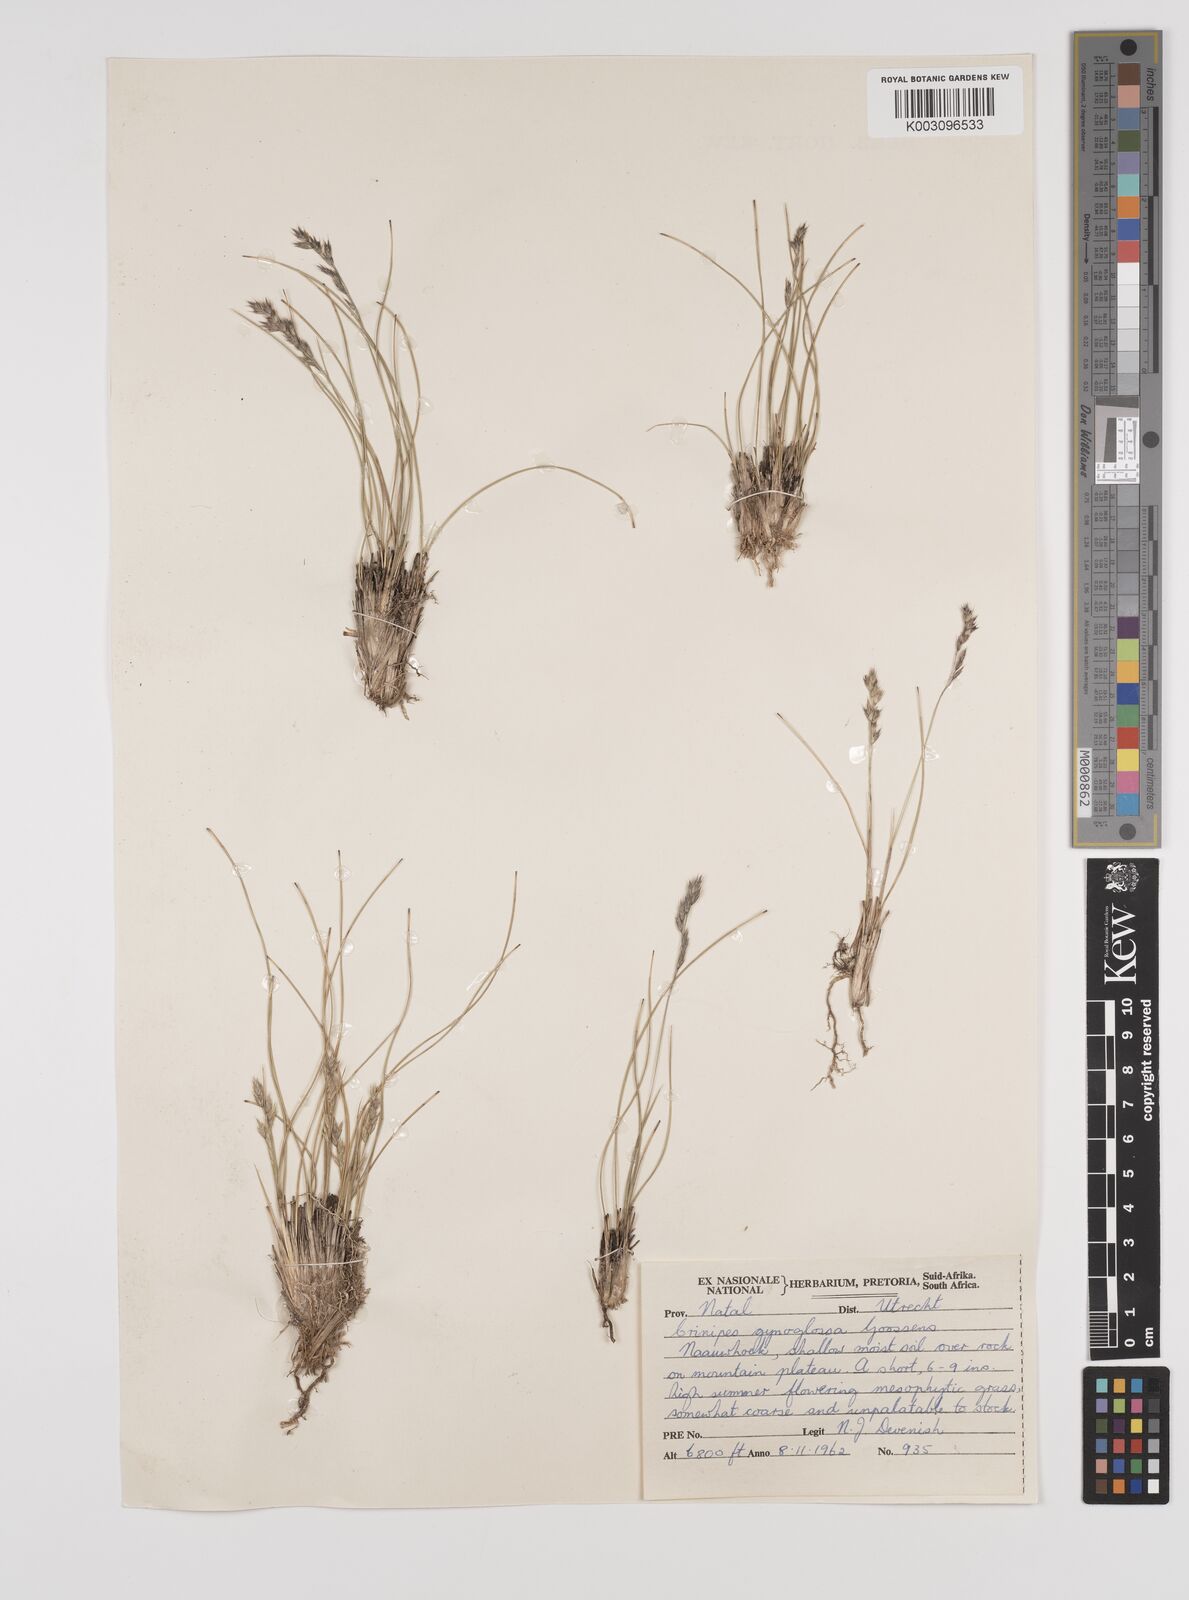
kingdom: Plantae
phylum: Tracheophyta
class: Liliopsida
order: Poales
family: Poaceae
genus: Styppeiochloa
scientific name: Styppeiochloa gynoglossa
